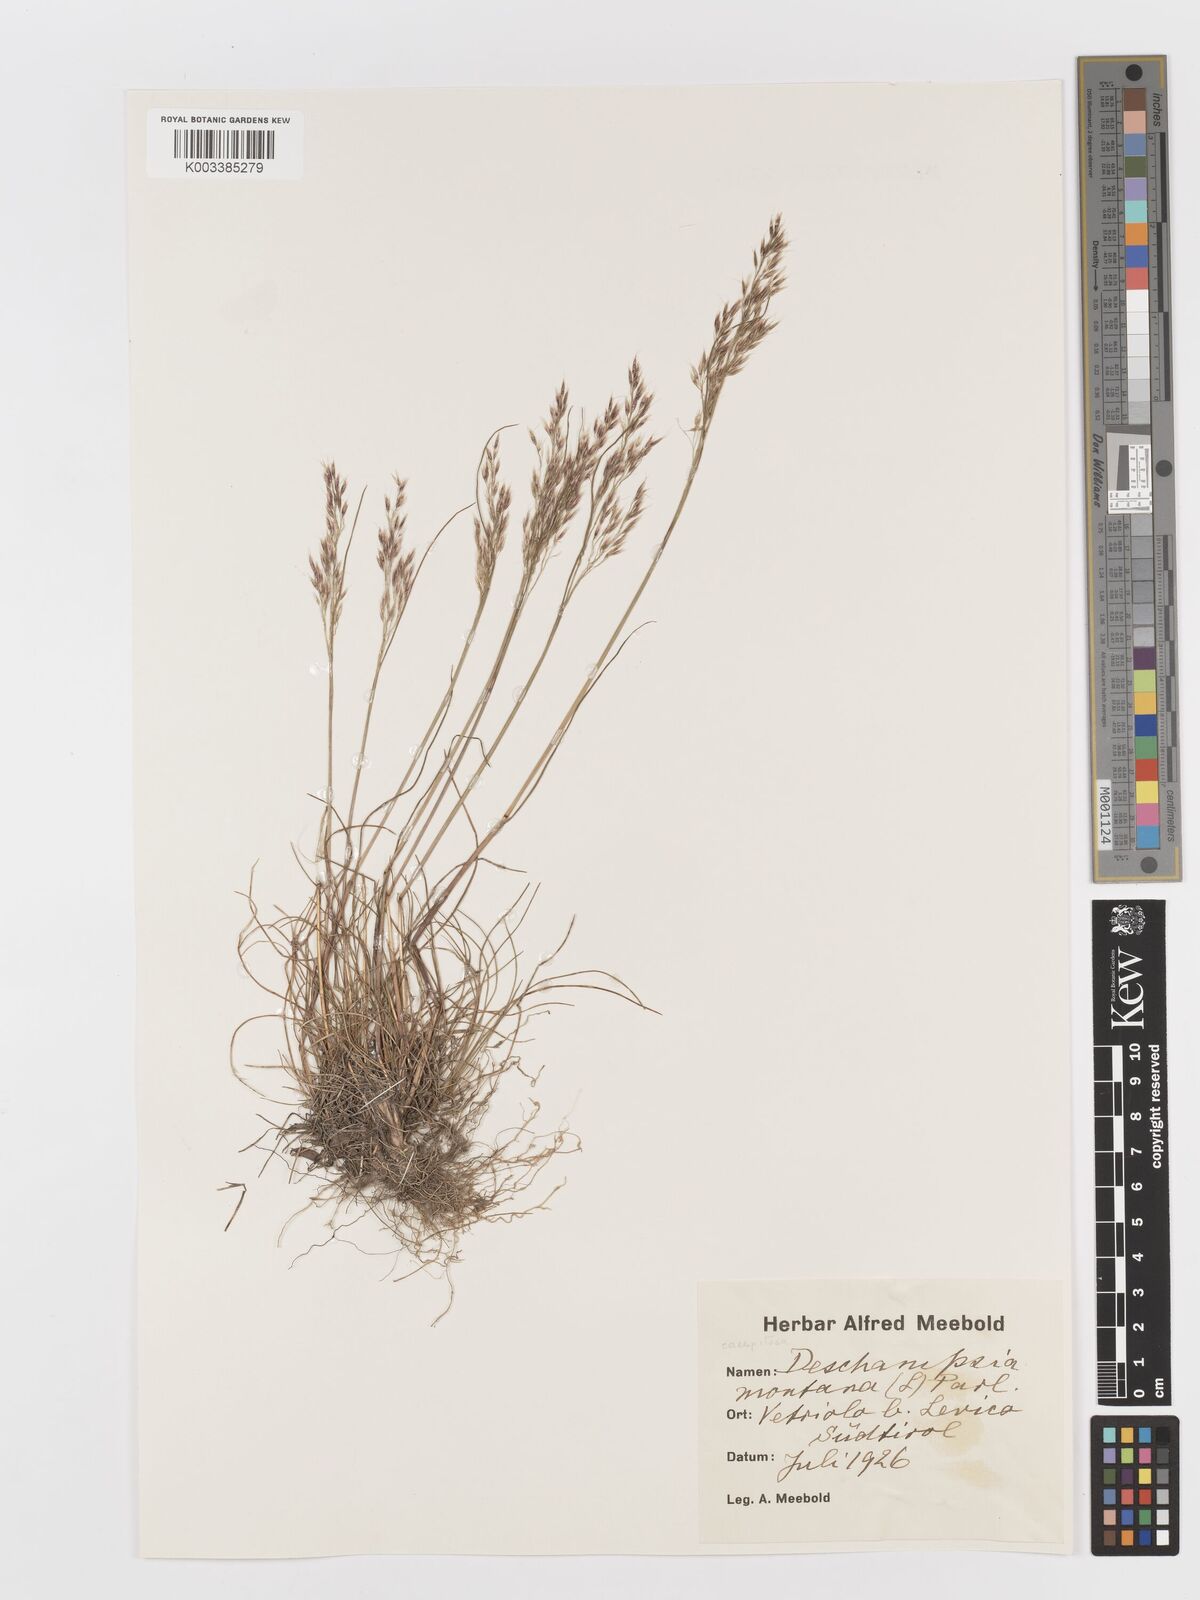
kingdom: Plantae
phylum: Tracheophyta
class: Liliopsida
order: Poales
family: Poaceae
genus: Deschampsia
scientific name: Deschampsia cespitosa
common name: Tufted hair-grass
